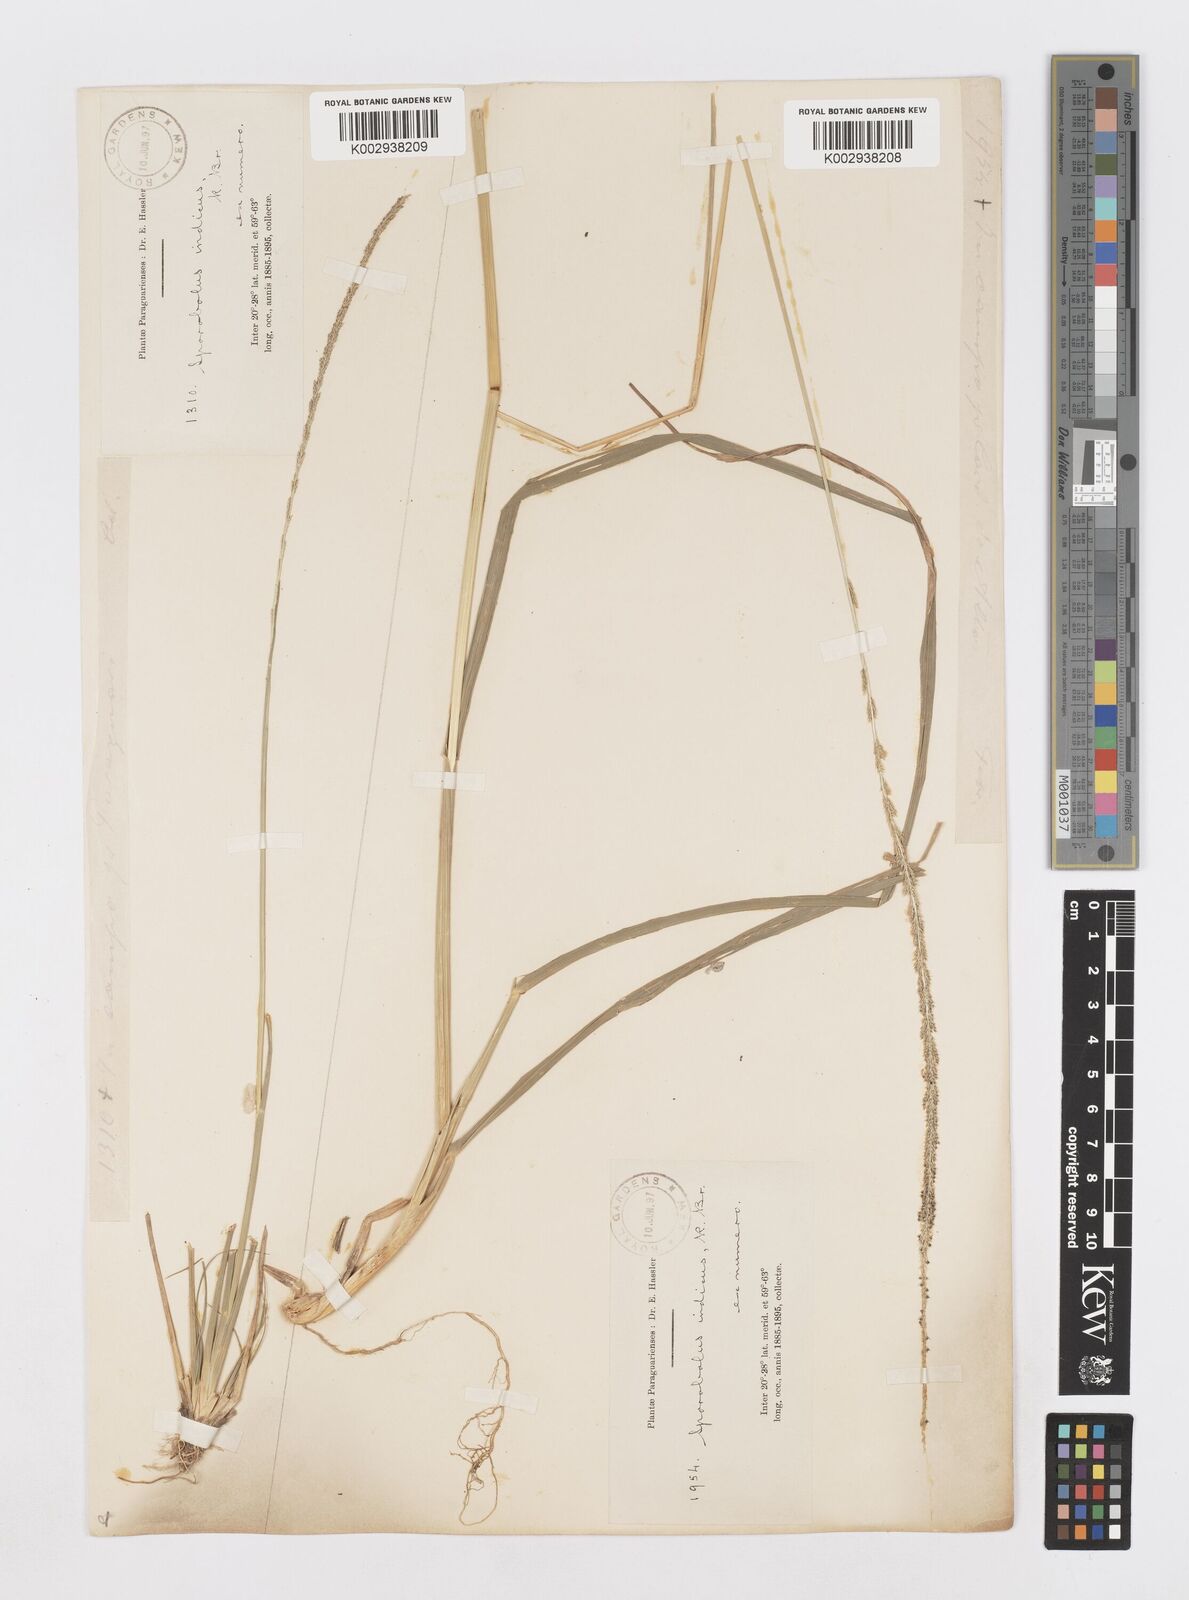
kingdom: Plantae
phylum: Tracheophyta
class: Liliopsida
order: Poales
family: Poaceae
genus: Sporobolus
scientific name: Sporobolus indicus
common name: Smut grass
